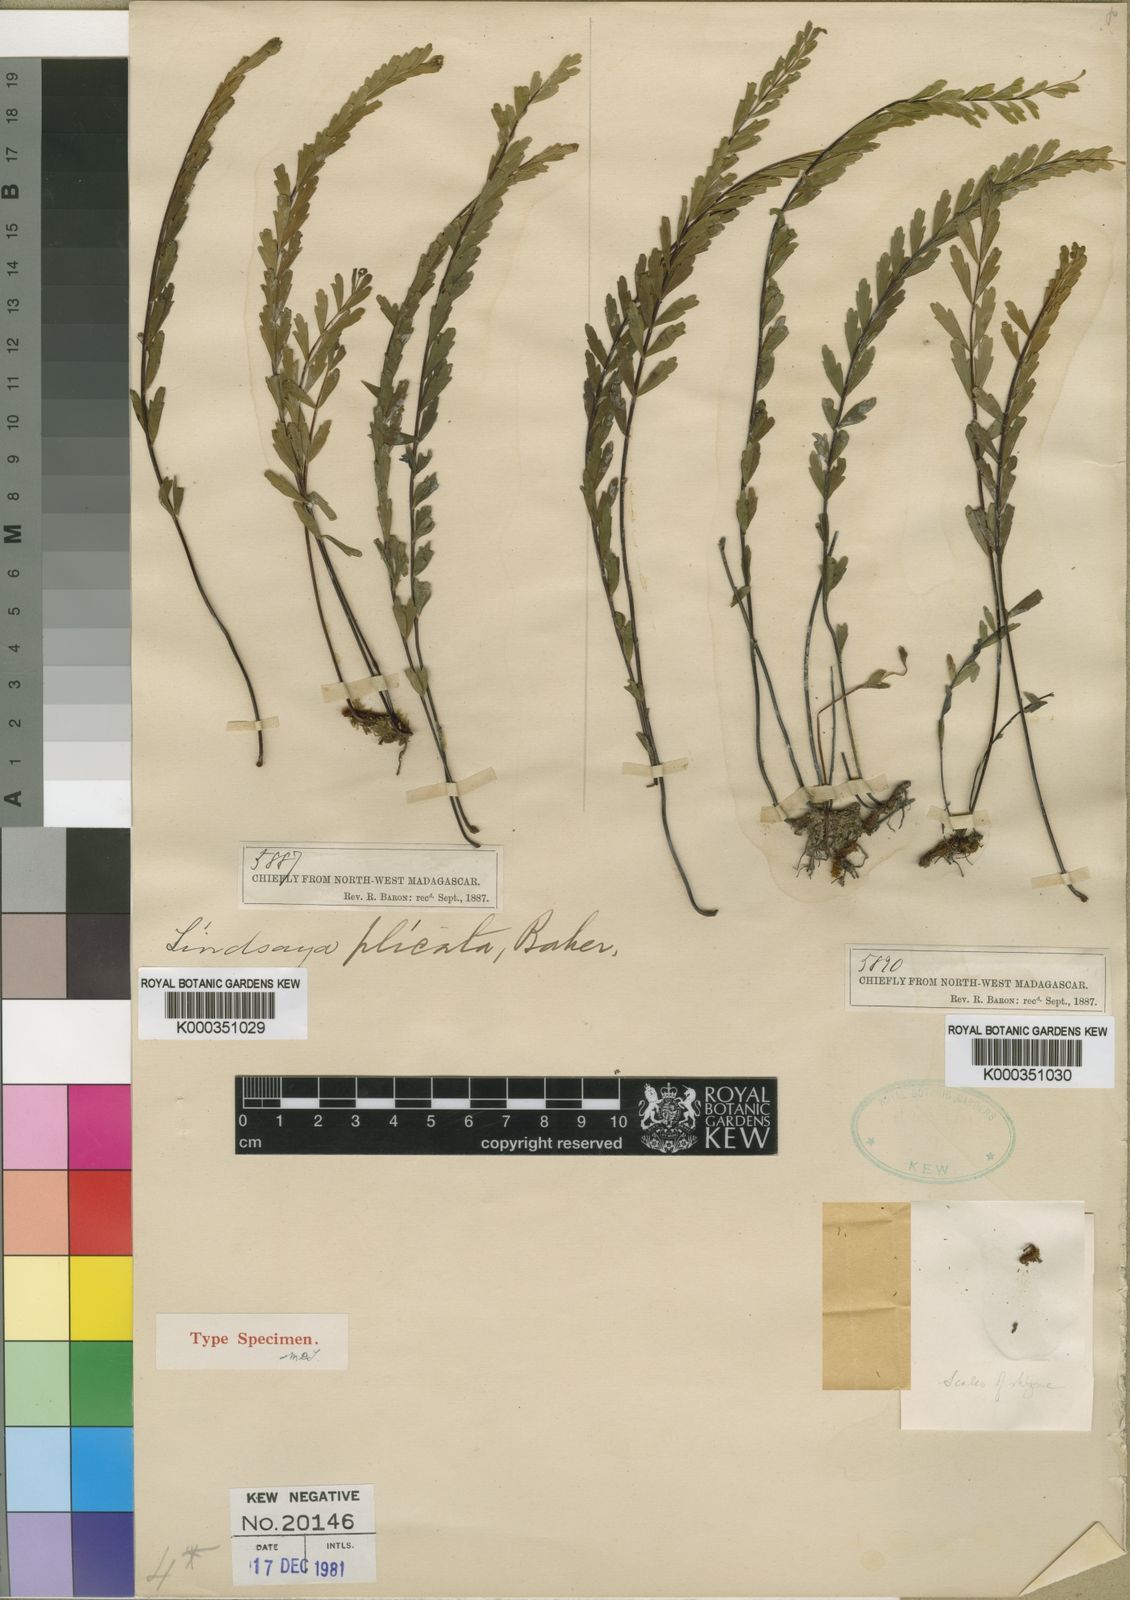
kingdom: Plantae
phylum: Tracheophyta
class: Polypodiopsida
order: Polypodiales
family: Lindsaeaceae
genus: Lindsaea
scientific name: Lindsaea plicata
